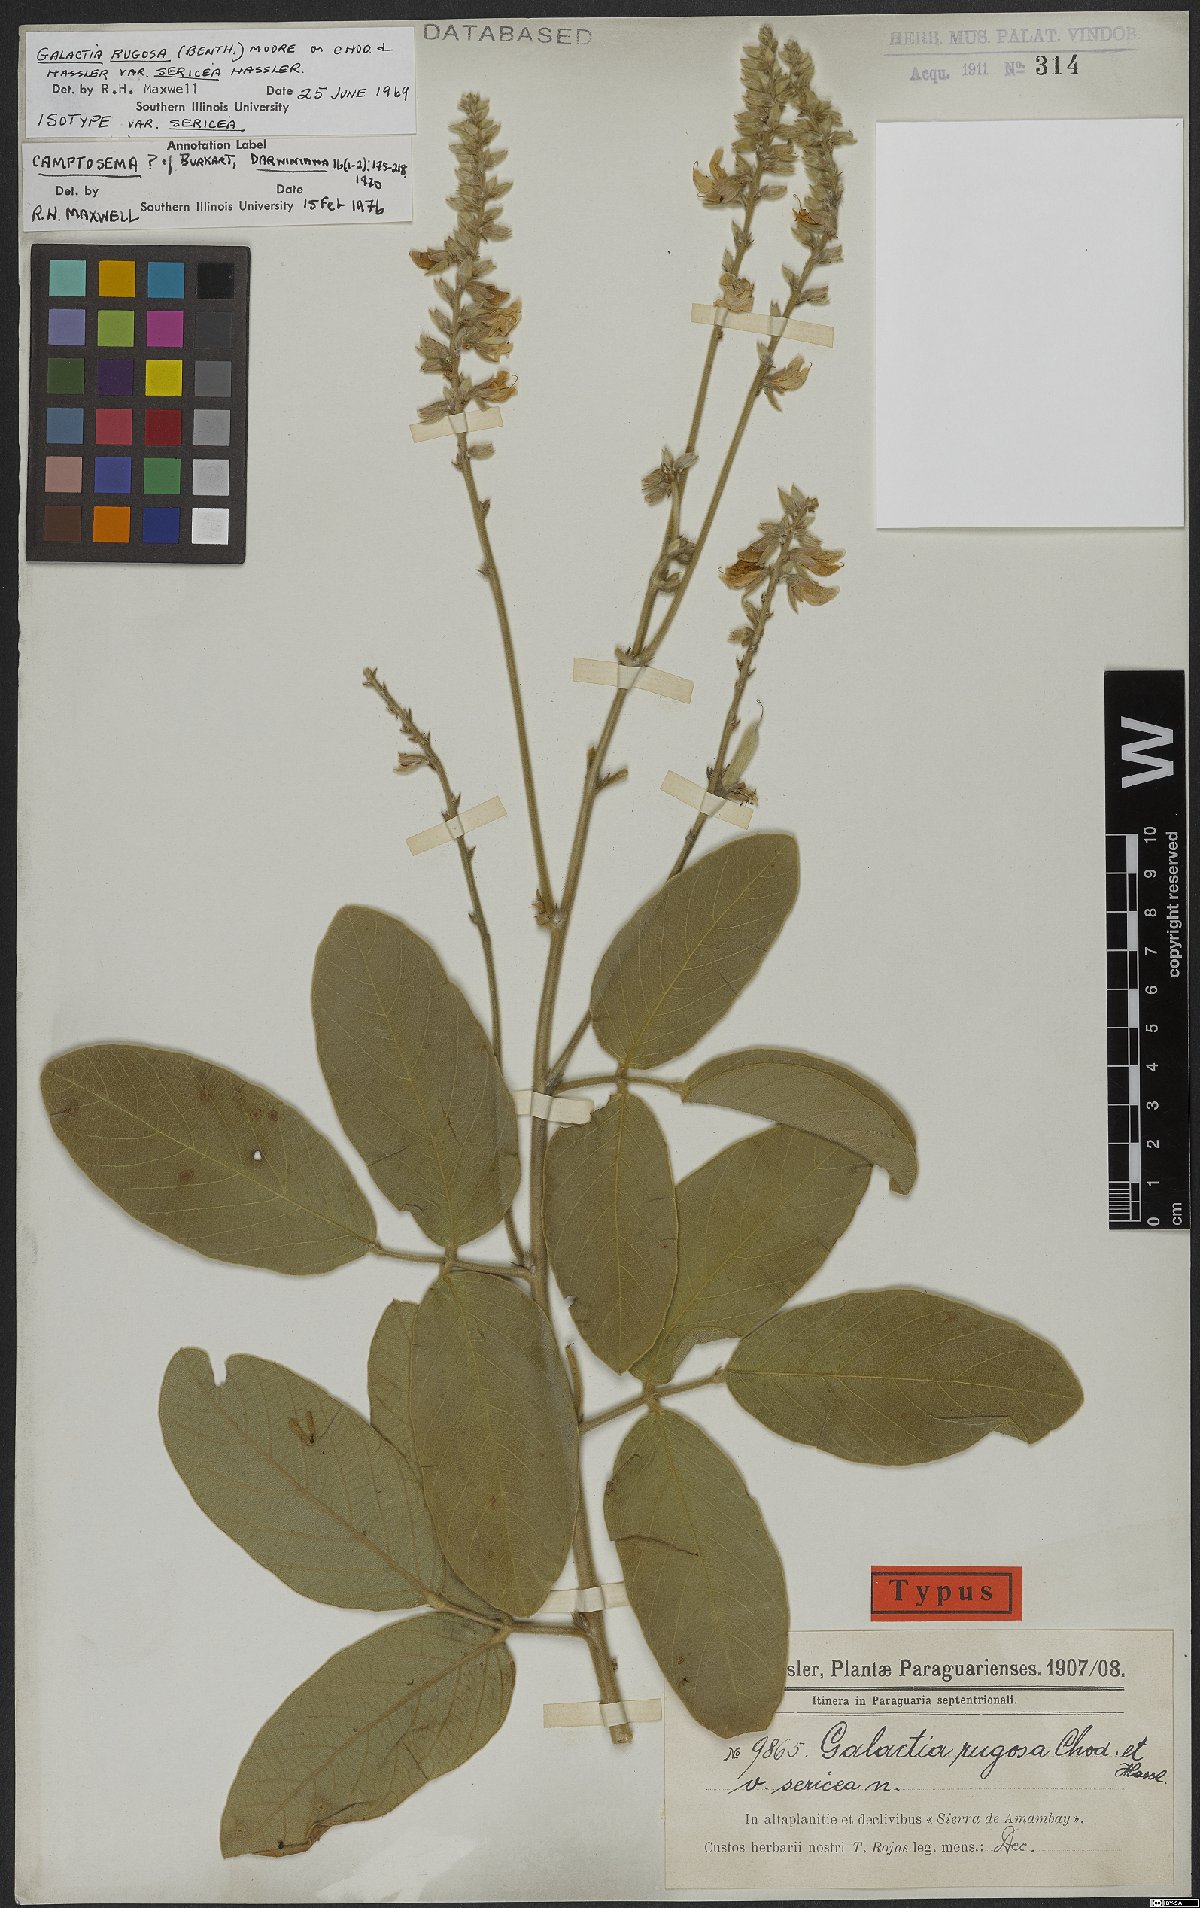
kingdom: Plantae
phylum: Tracheophyta
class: Magnoliopsida
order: Fabales
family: Fabaceae
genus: Camptosema
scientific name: Camptosema
